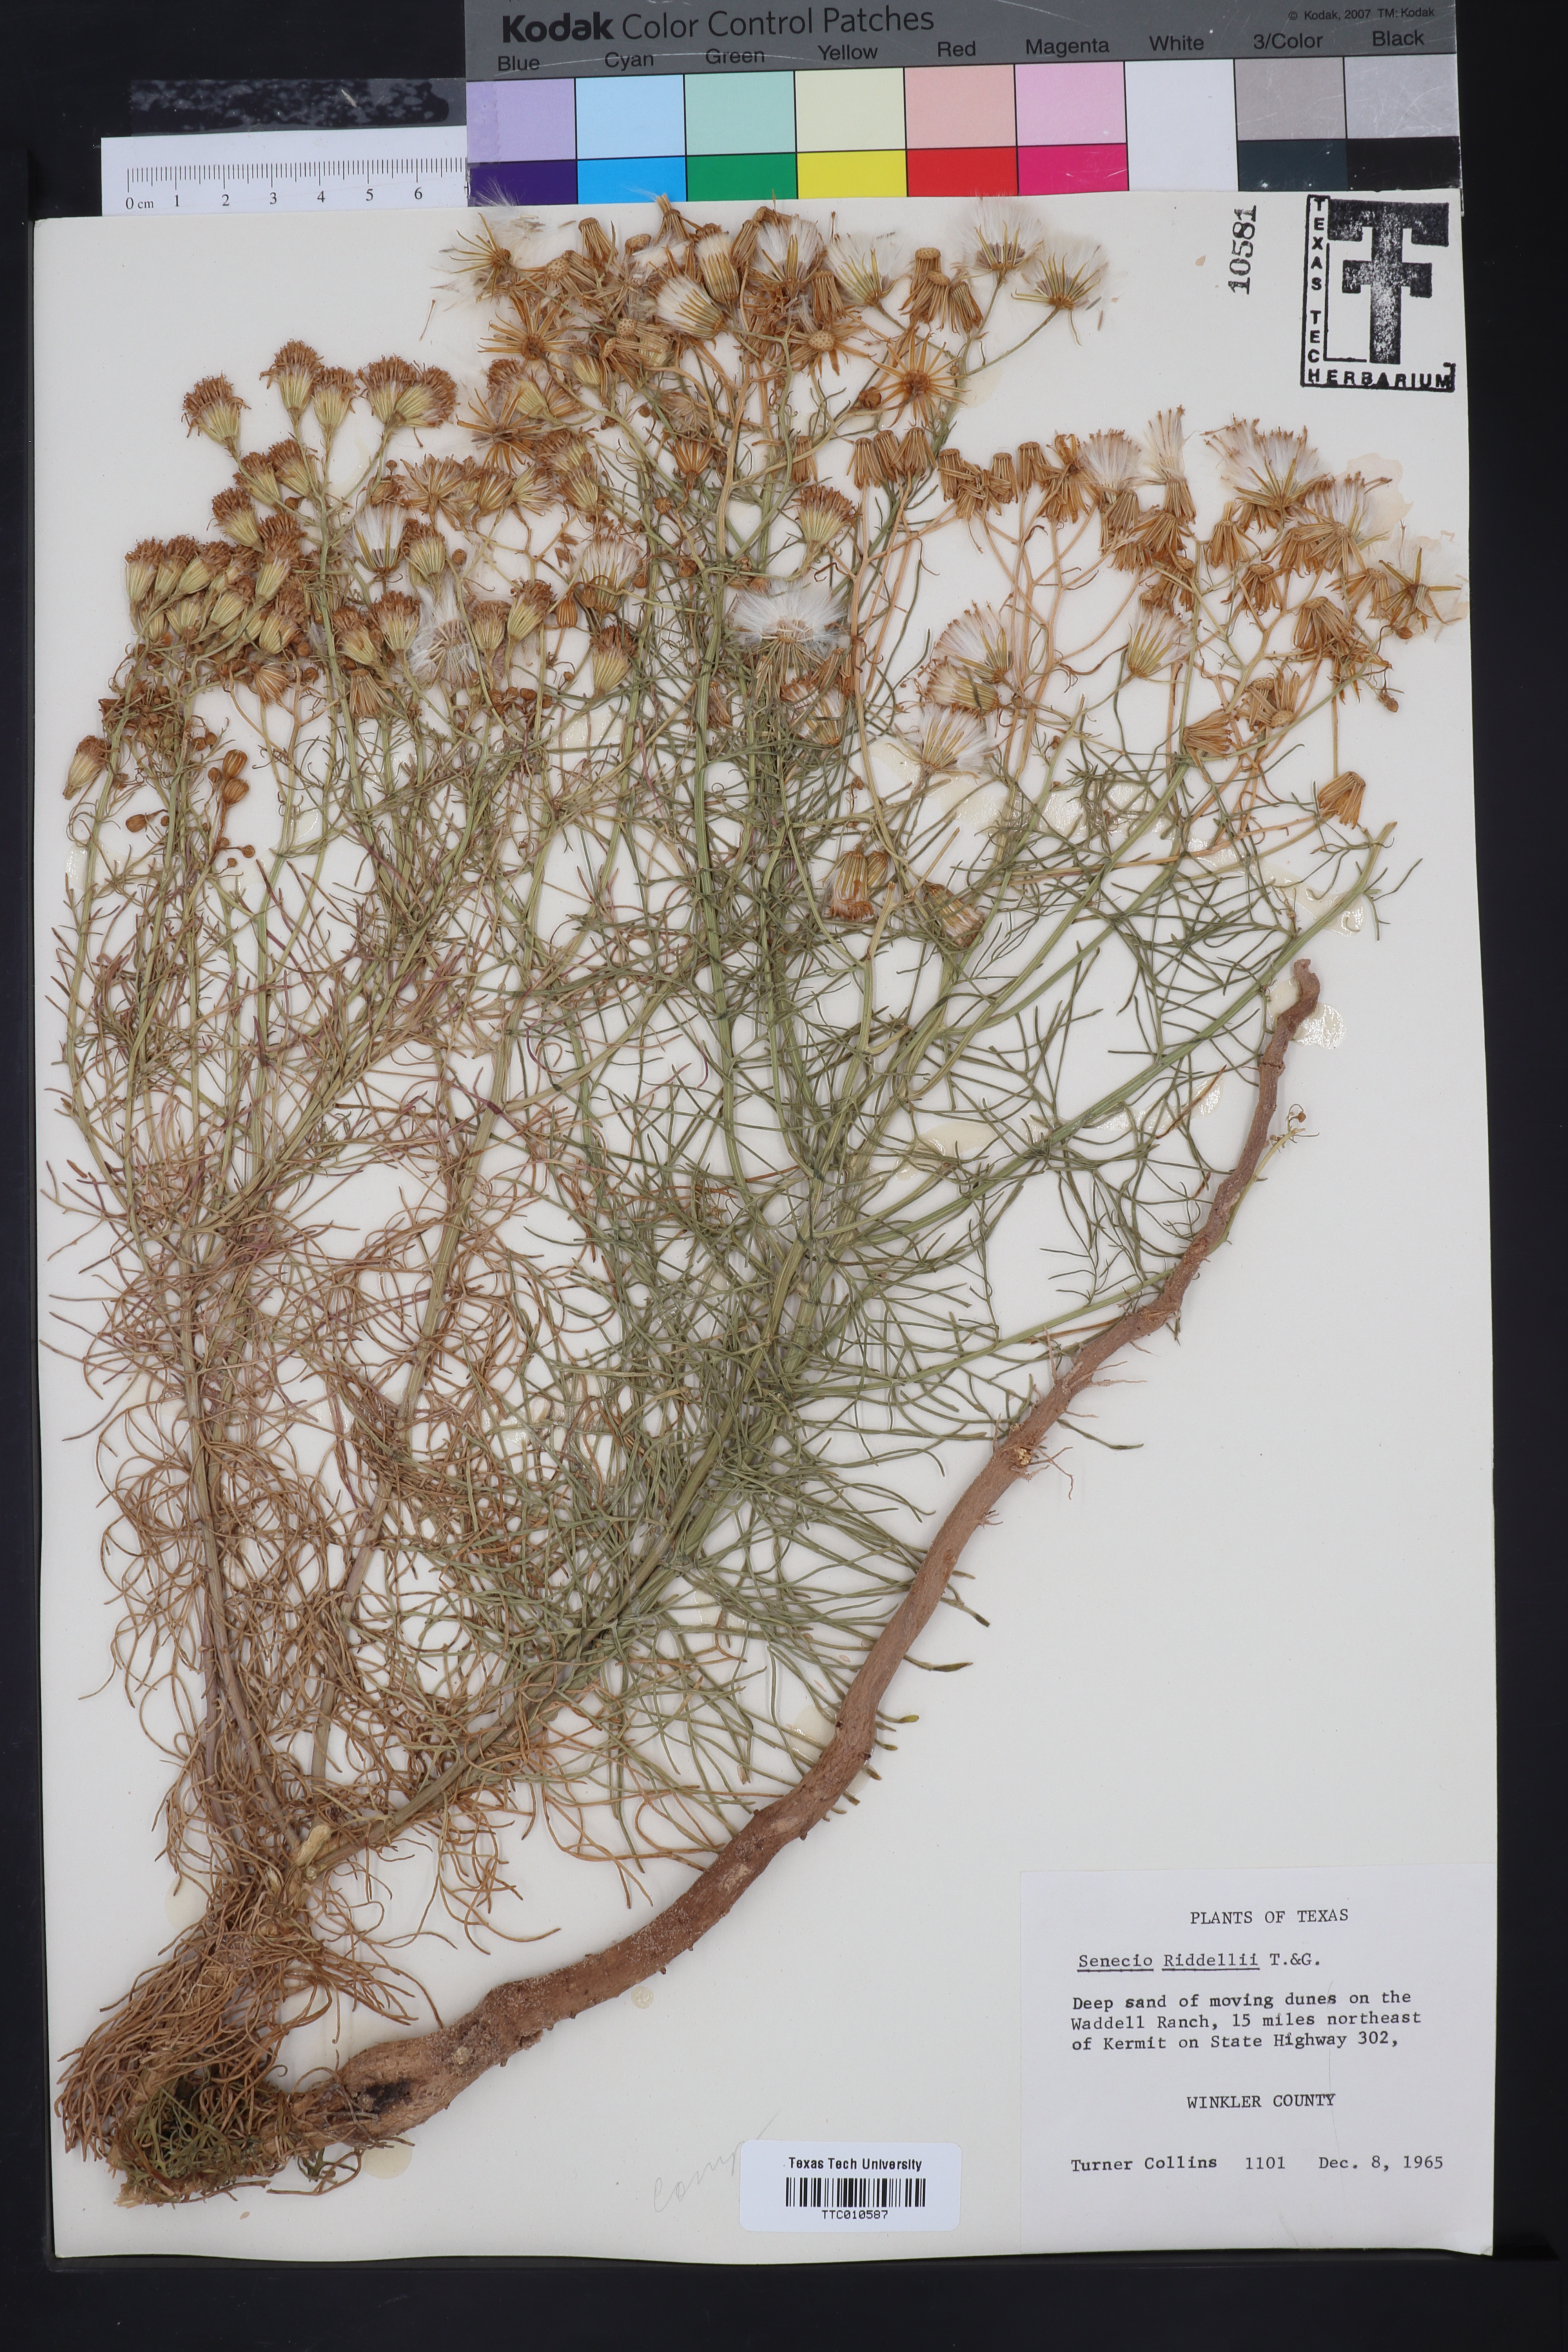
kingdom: Plantae
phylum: Tracheophyta
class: Magnoliopsida
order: Asterales
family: Asteraceae
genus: Senecio
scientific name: Senecio riddellii
